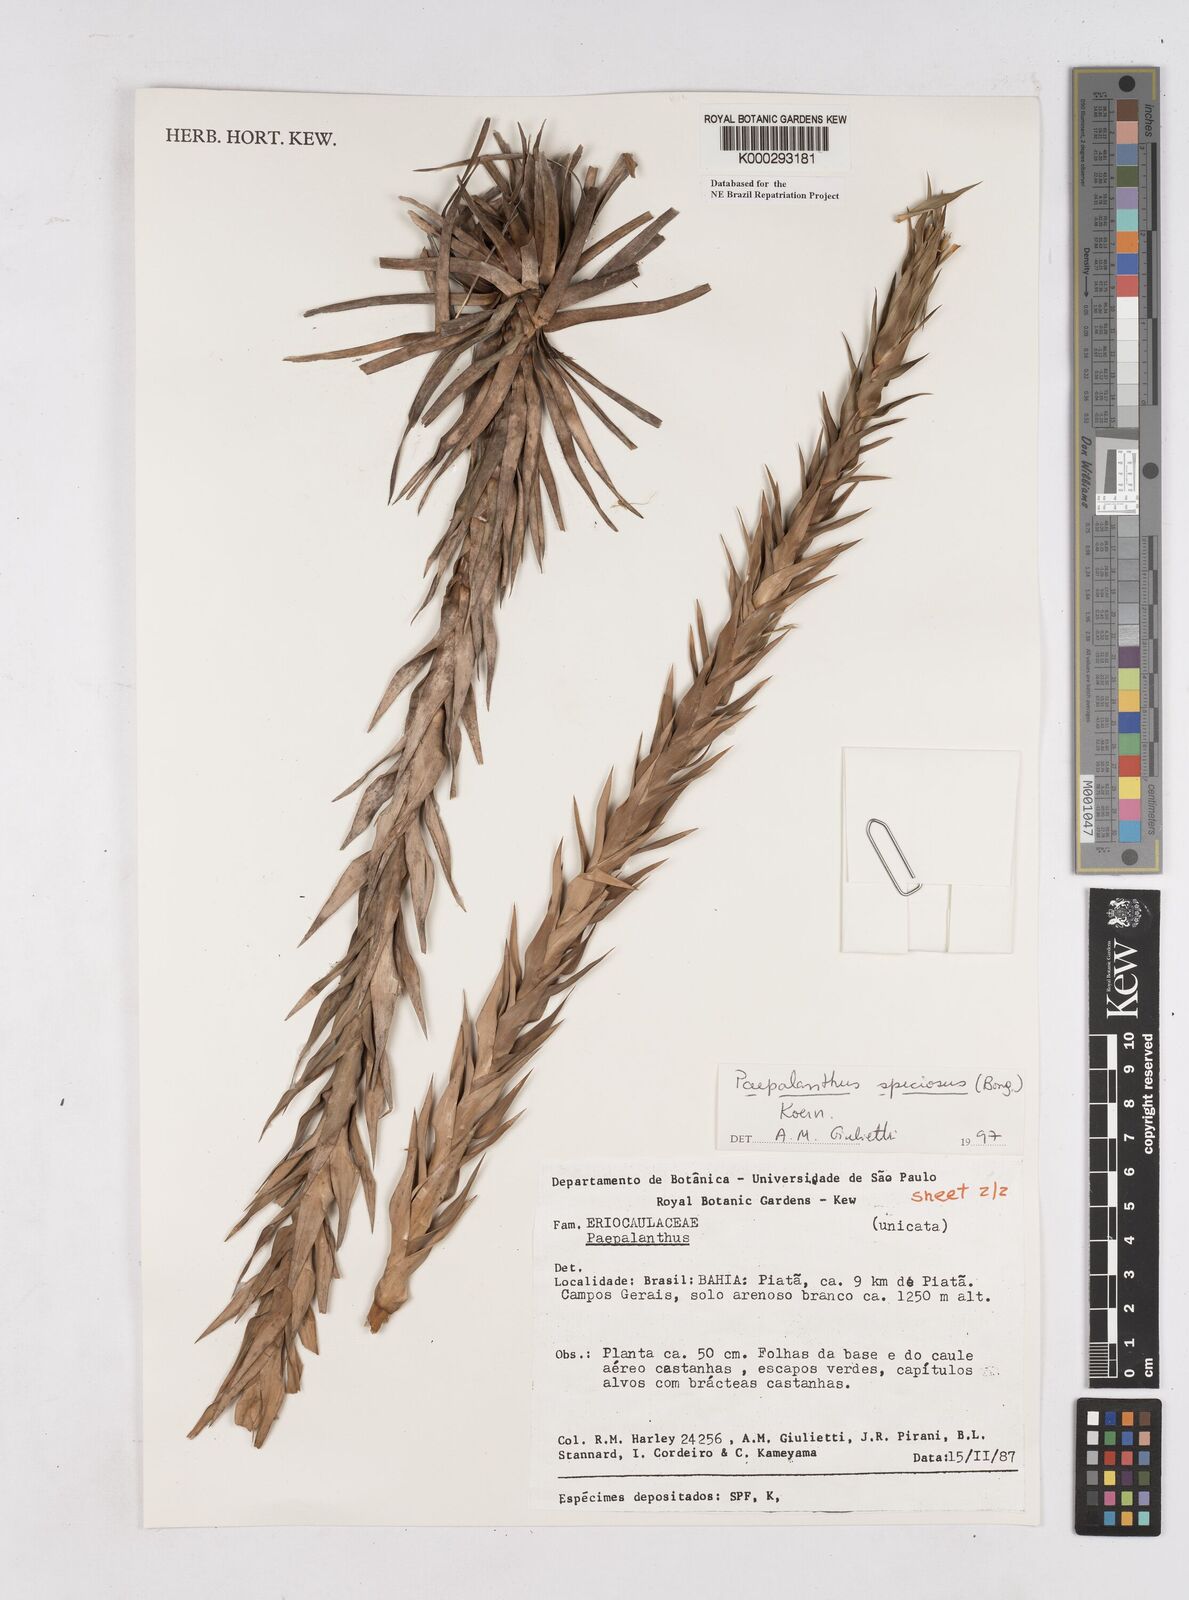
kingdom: Plantae
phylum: Tracheophyta
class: Liliopsida
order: Poales
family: Eriocaulaceae
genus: Paepalanthus
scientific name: Paepalanthus
